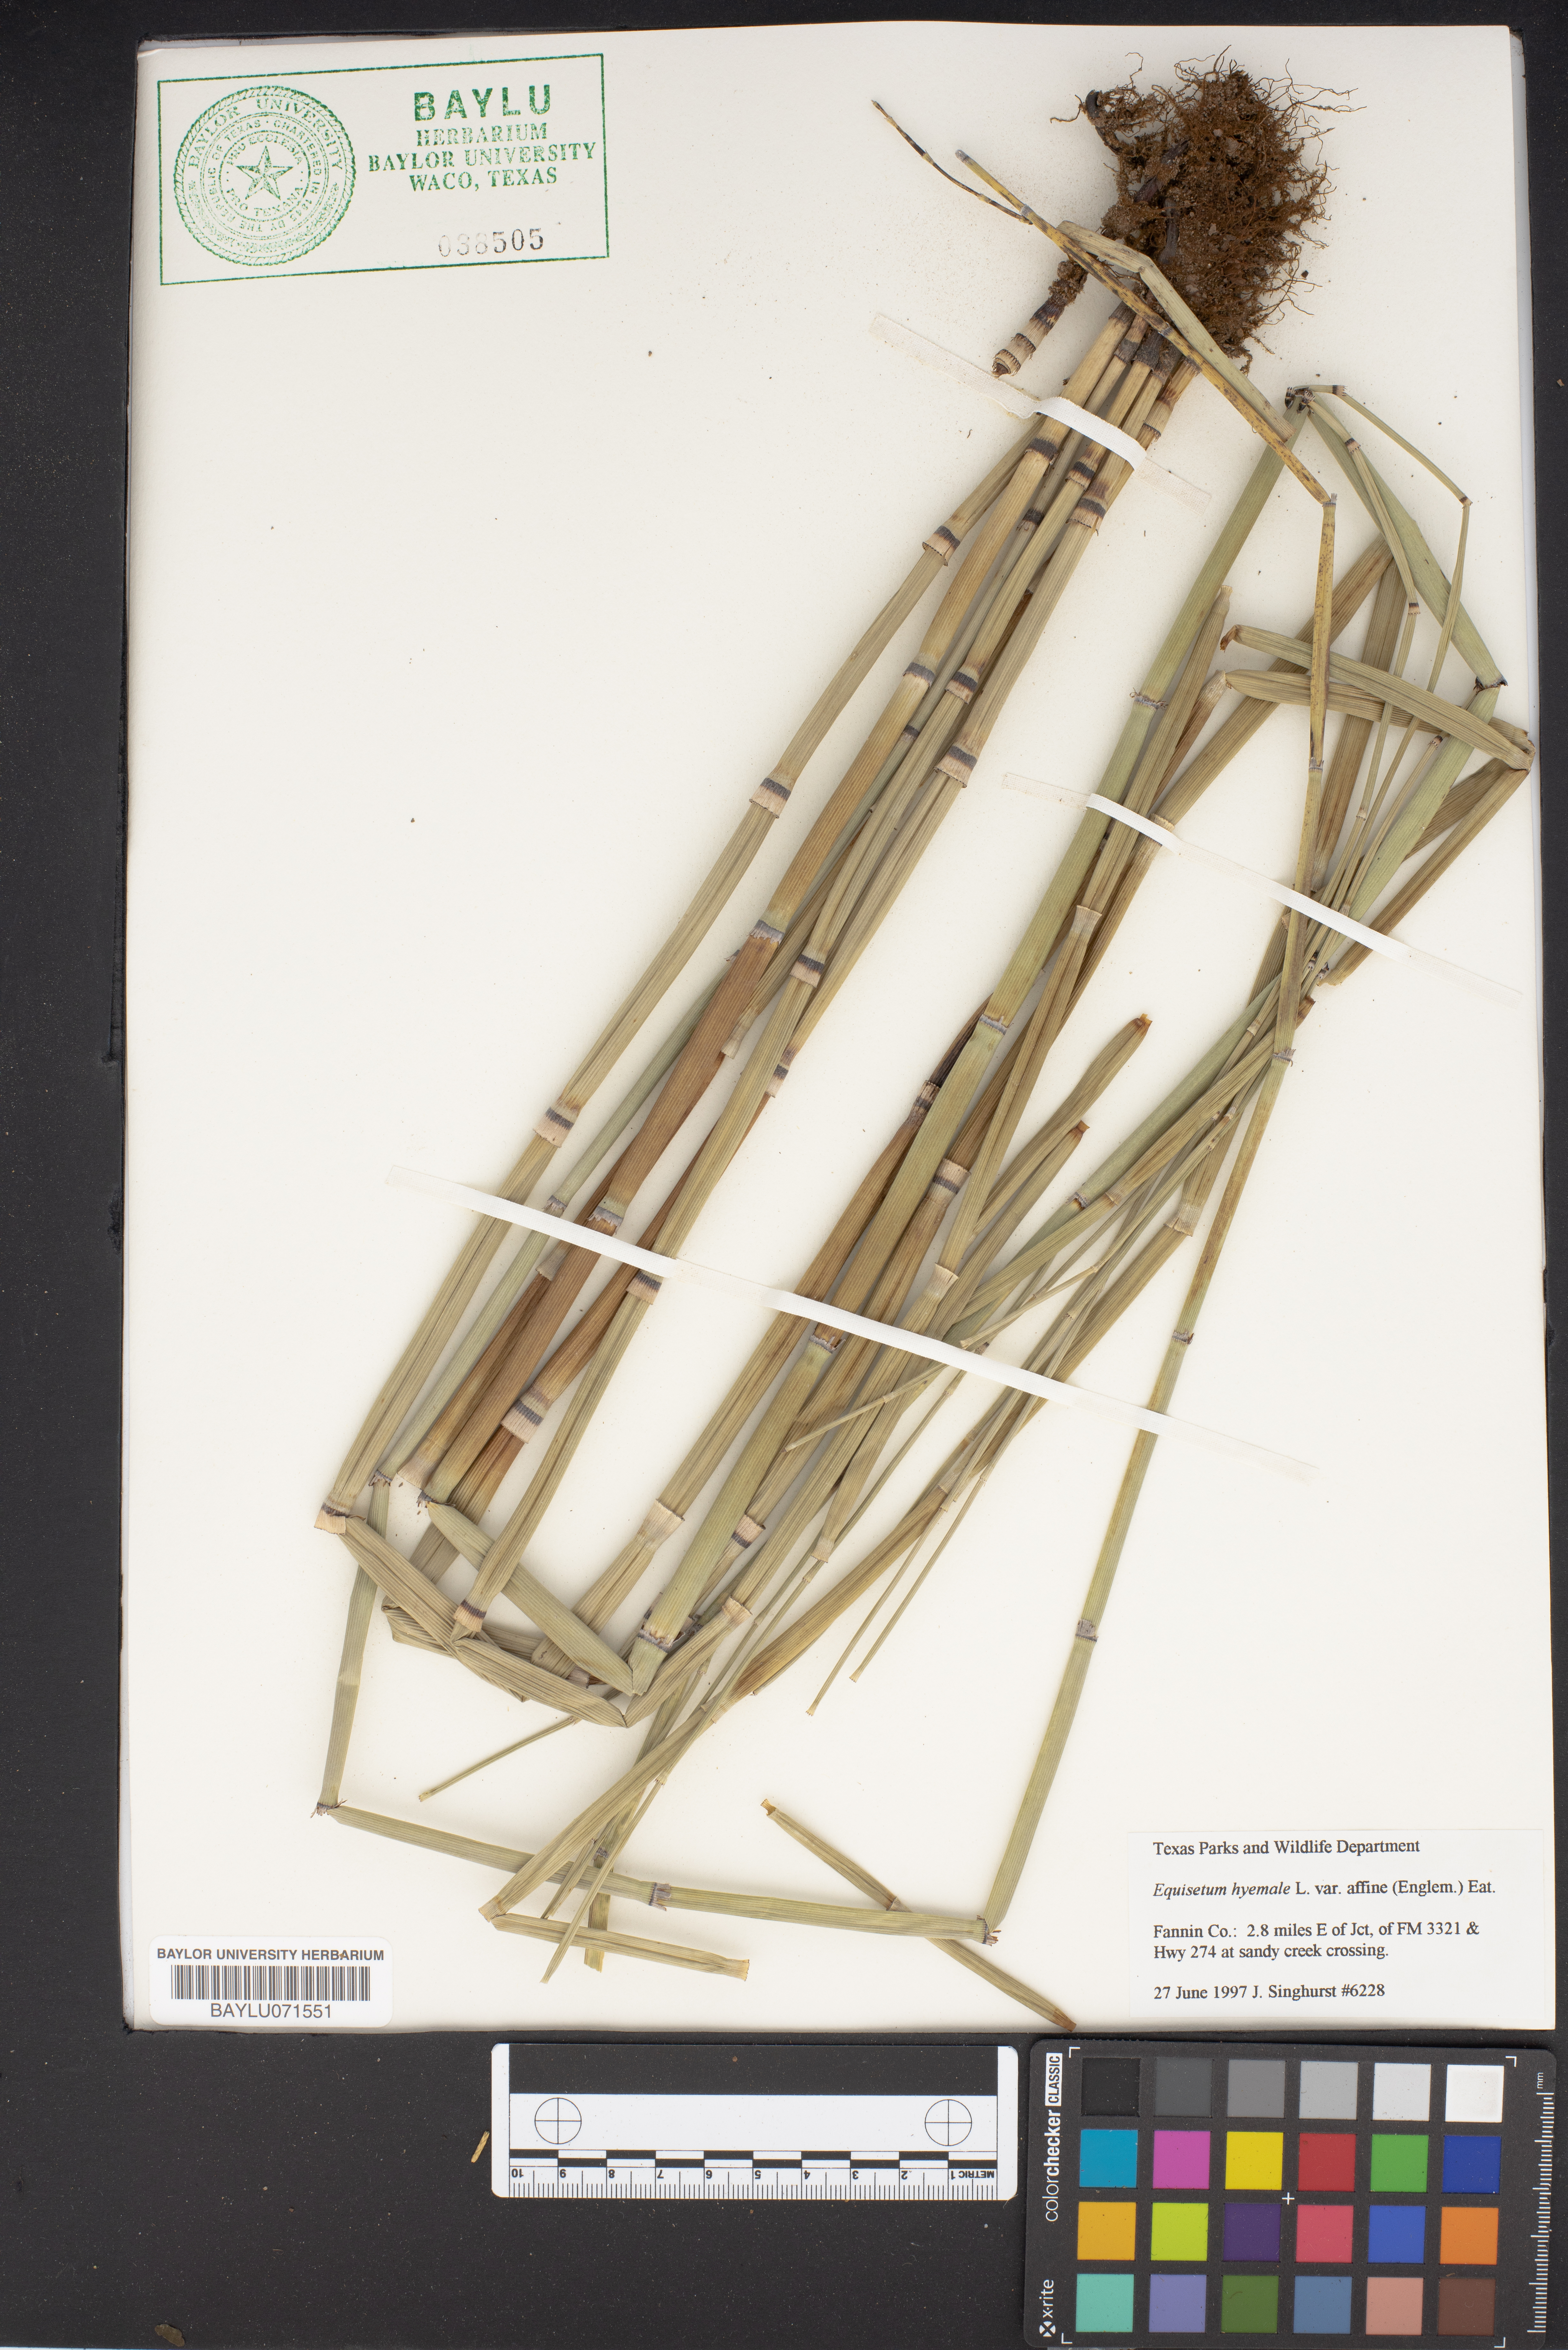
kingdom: Plantae
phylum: Tracheophyta
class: Polypodiopsida
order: Equisetales
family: Equisetaceae
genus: Equisetum
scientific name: Equisetum praealtum
